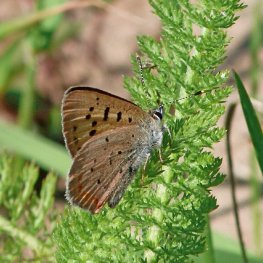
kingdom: Animalia
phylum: Arthropoda
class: Insecta
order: Lepidoptera
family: Sesiidae
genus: Sesia
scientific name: Sesia Lycaena helloides
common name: Purplish Copper
